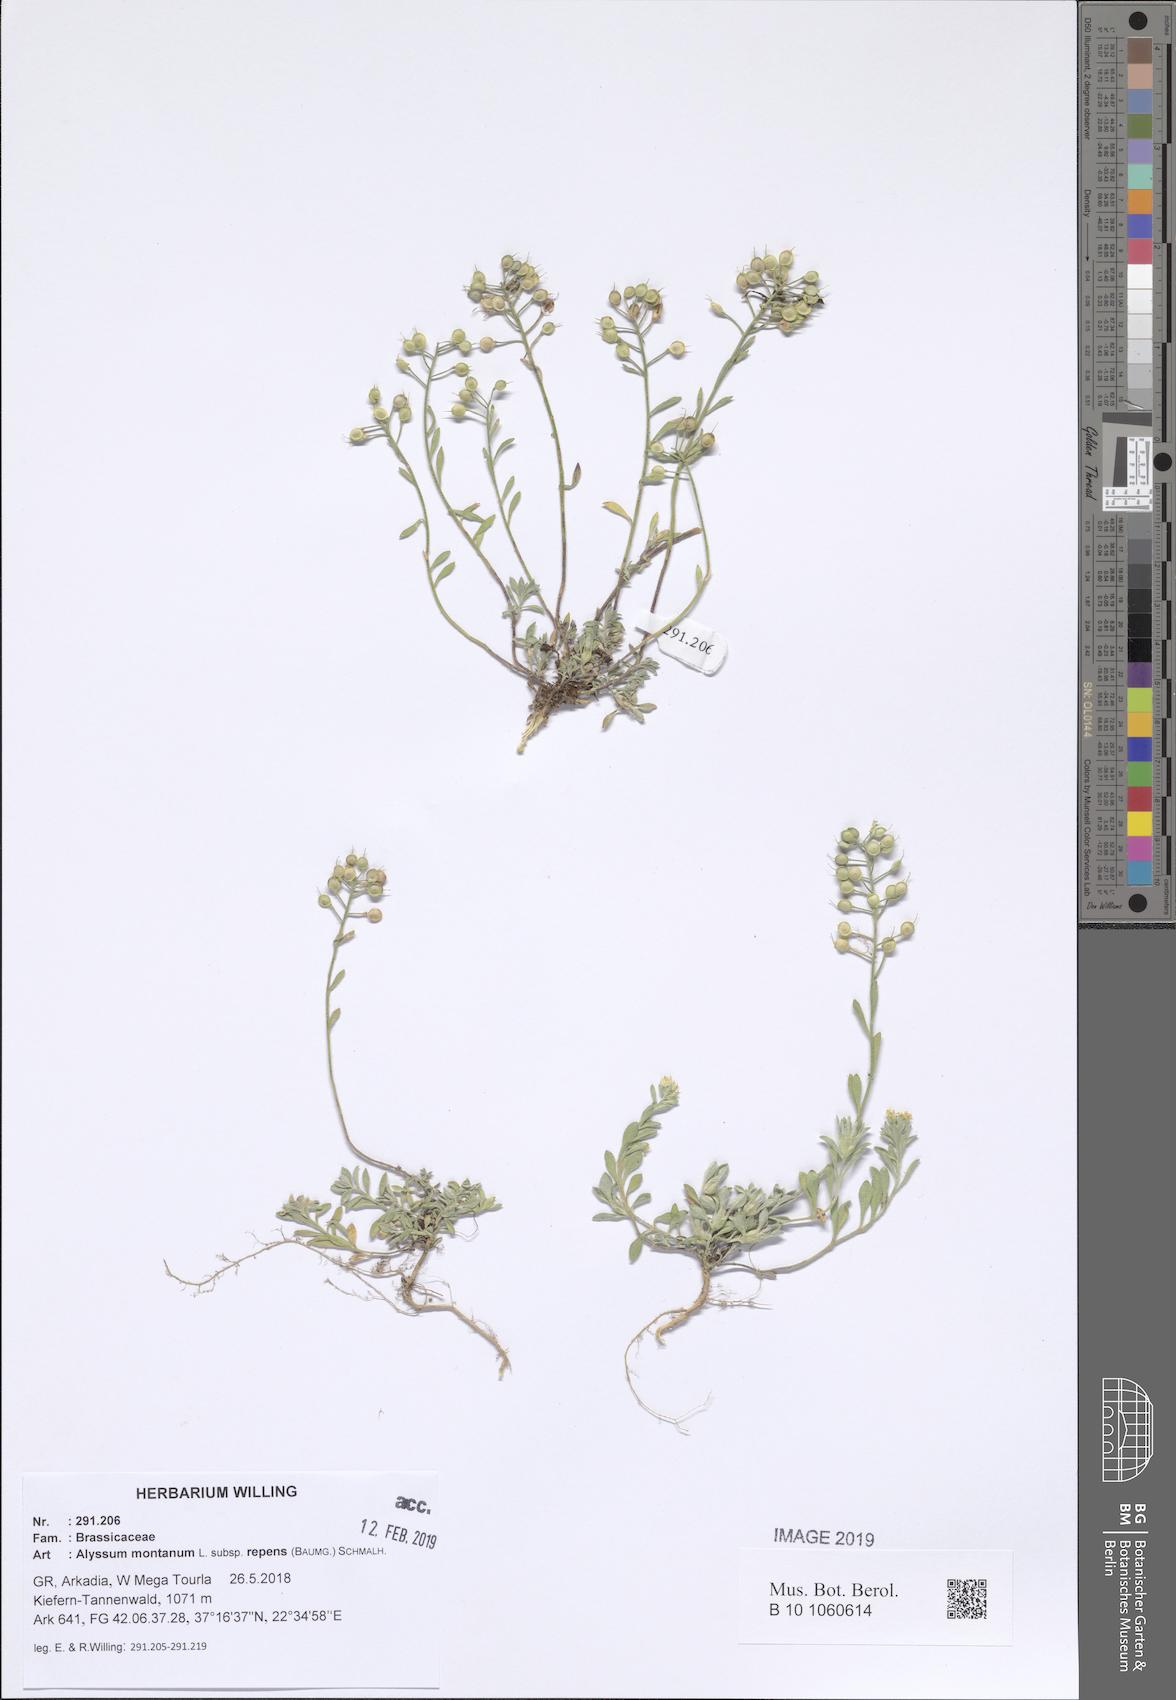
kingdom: Plantae
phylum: Tracheophyta
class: Magnoliopsida
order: Brassicales
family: Brassicaceae
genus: Alyssum
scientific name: Alyssum trichostachyum
